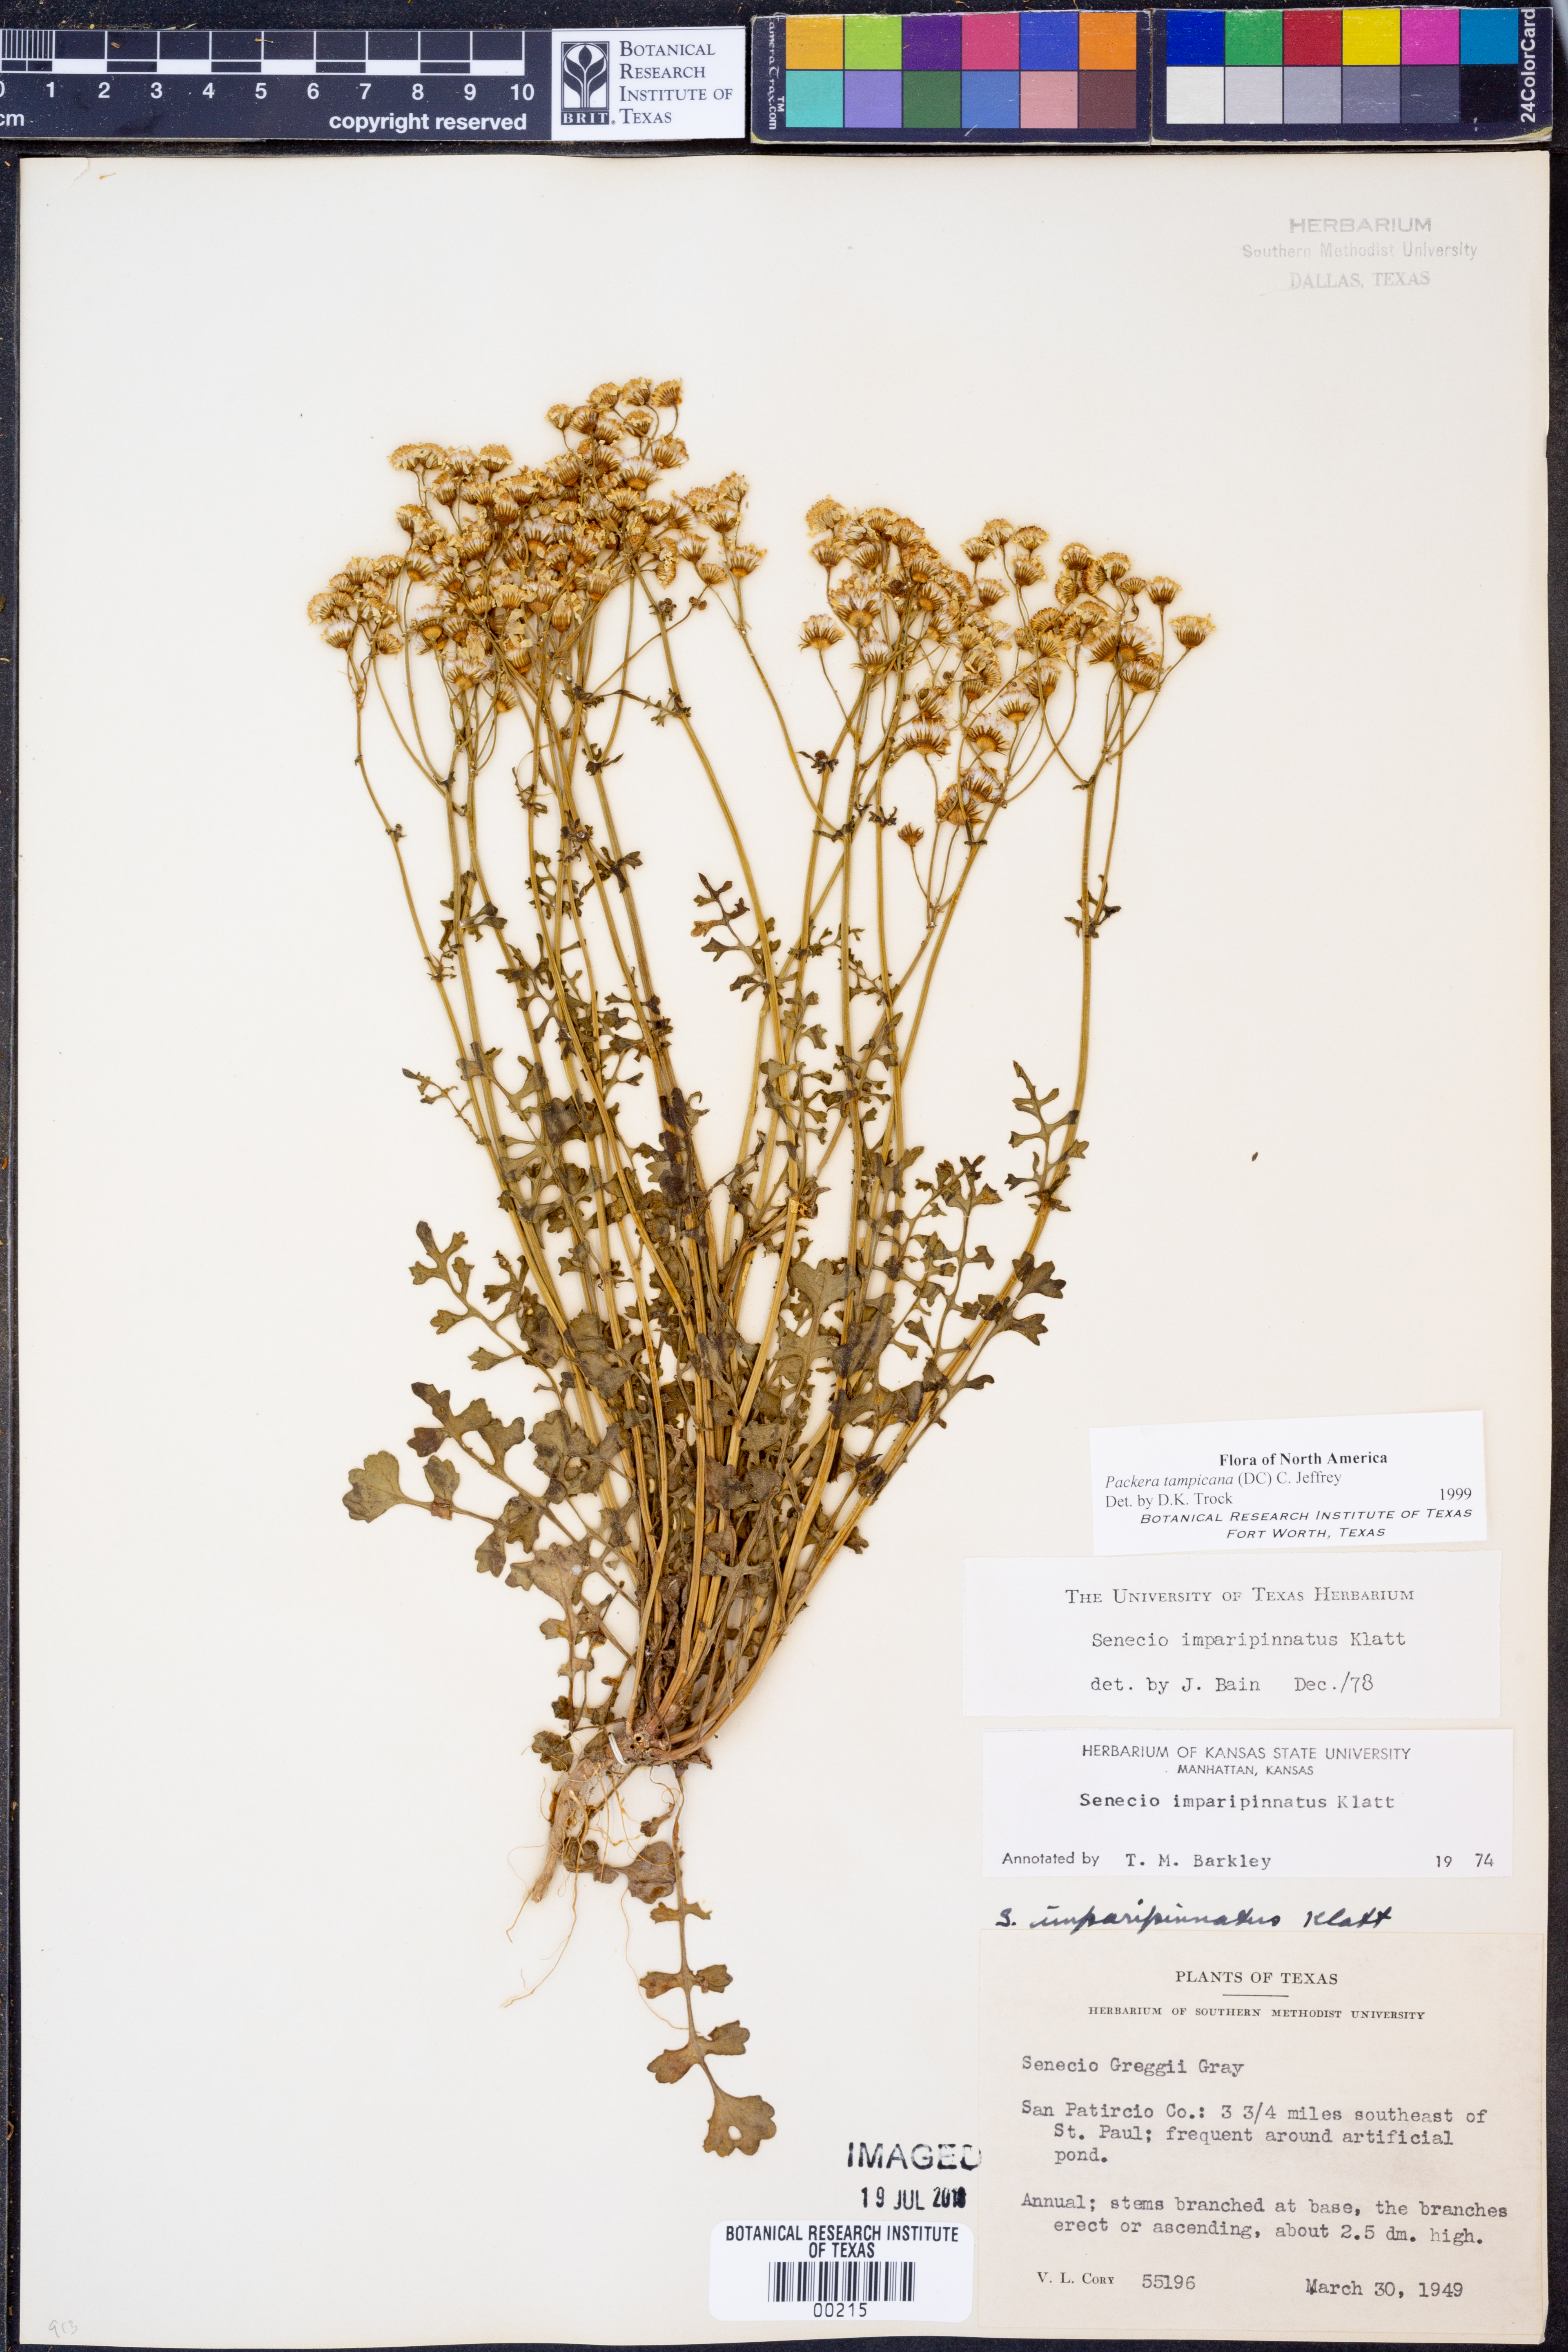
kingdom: Plantae
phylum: Tracheophyta
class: Magnoliopsida
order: Asterales
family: Asteraceae
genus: Packera
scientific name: Packera tampicana
